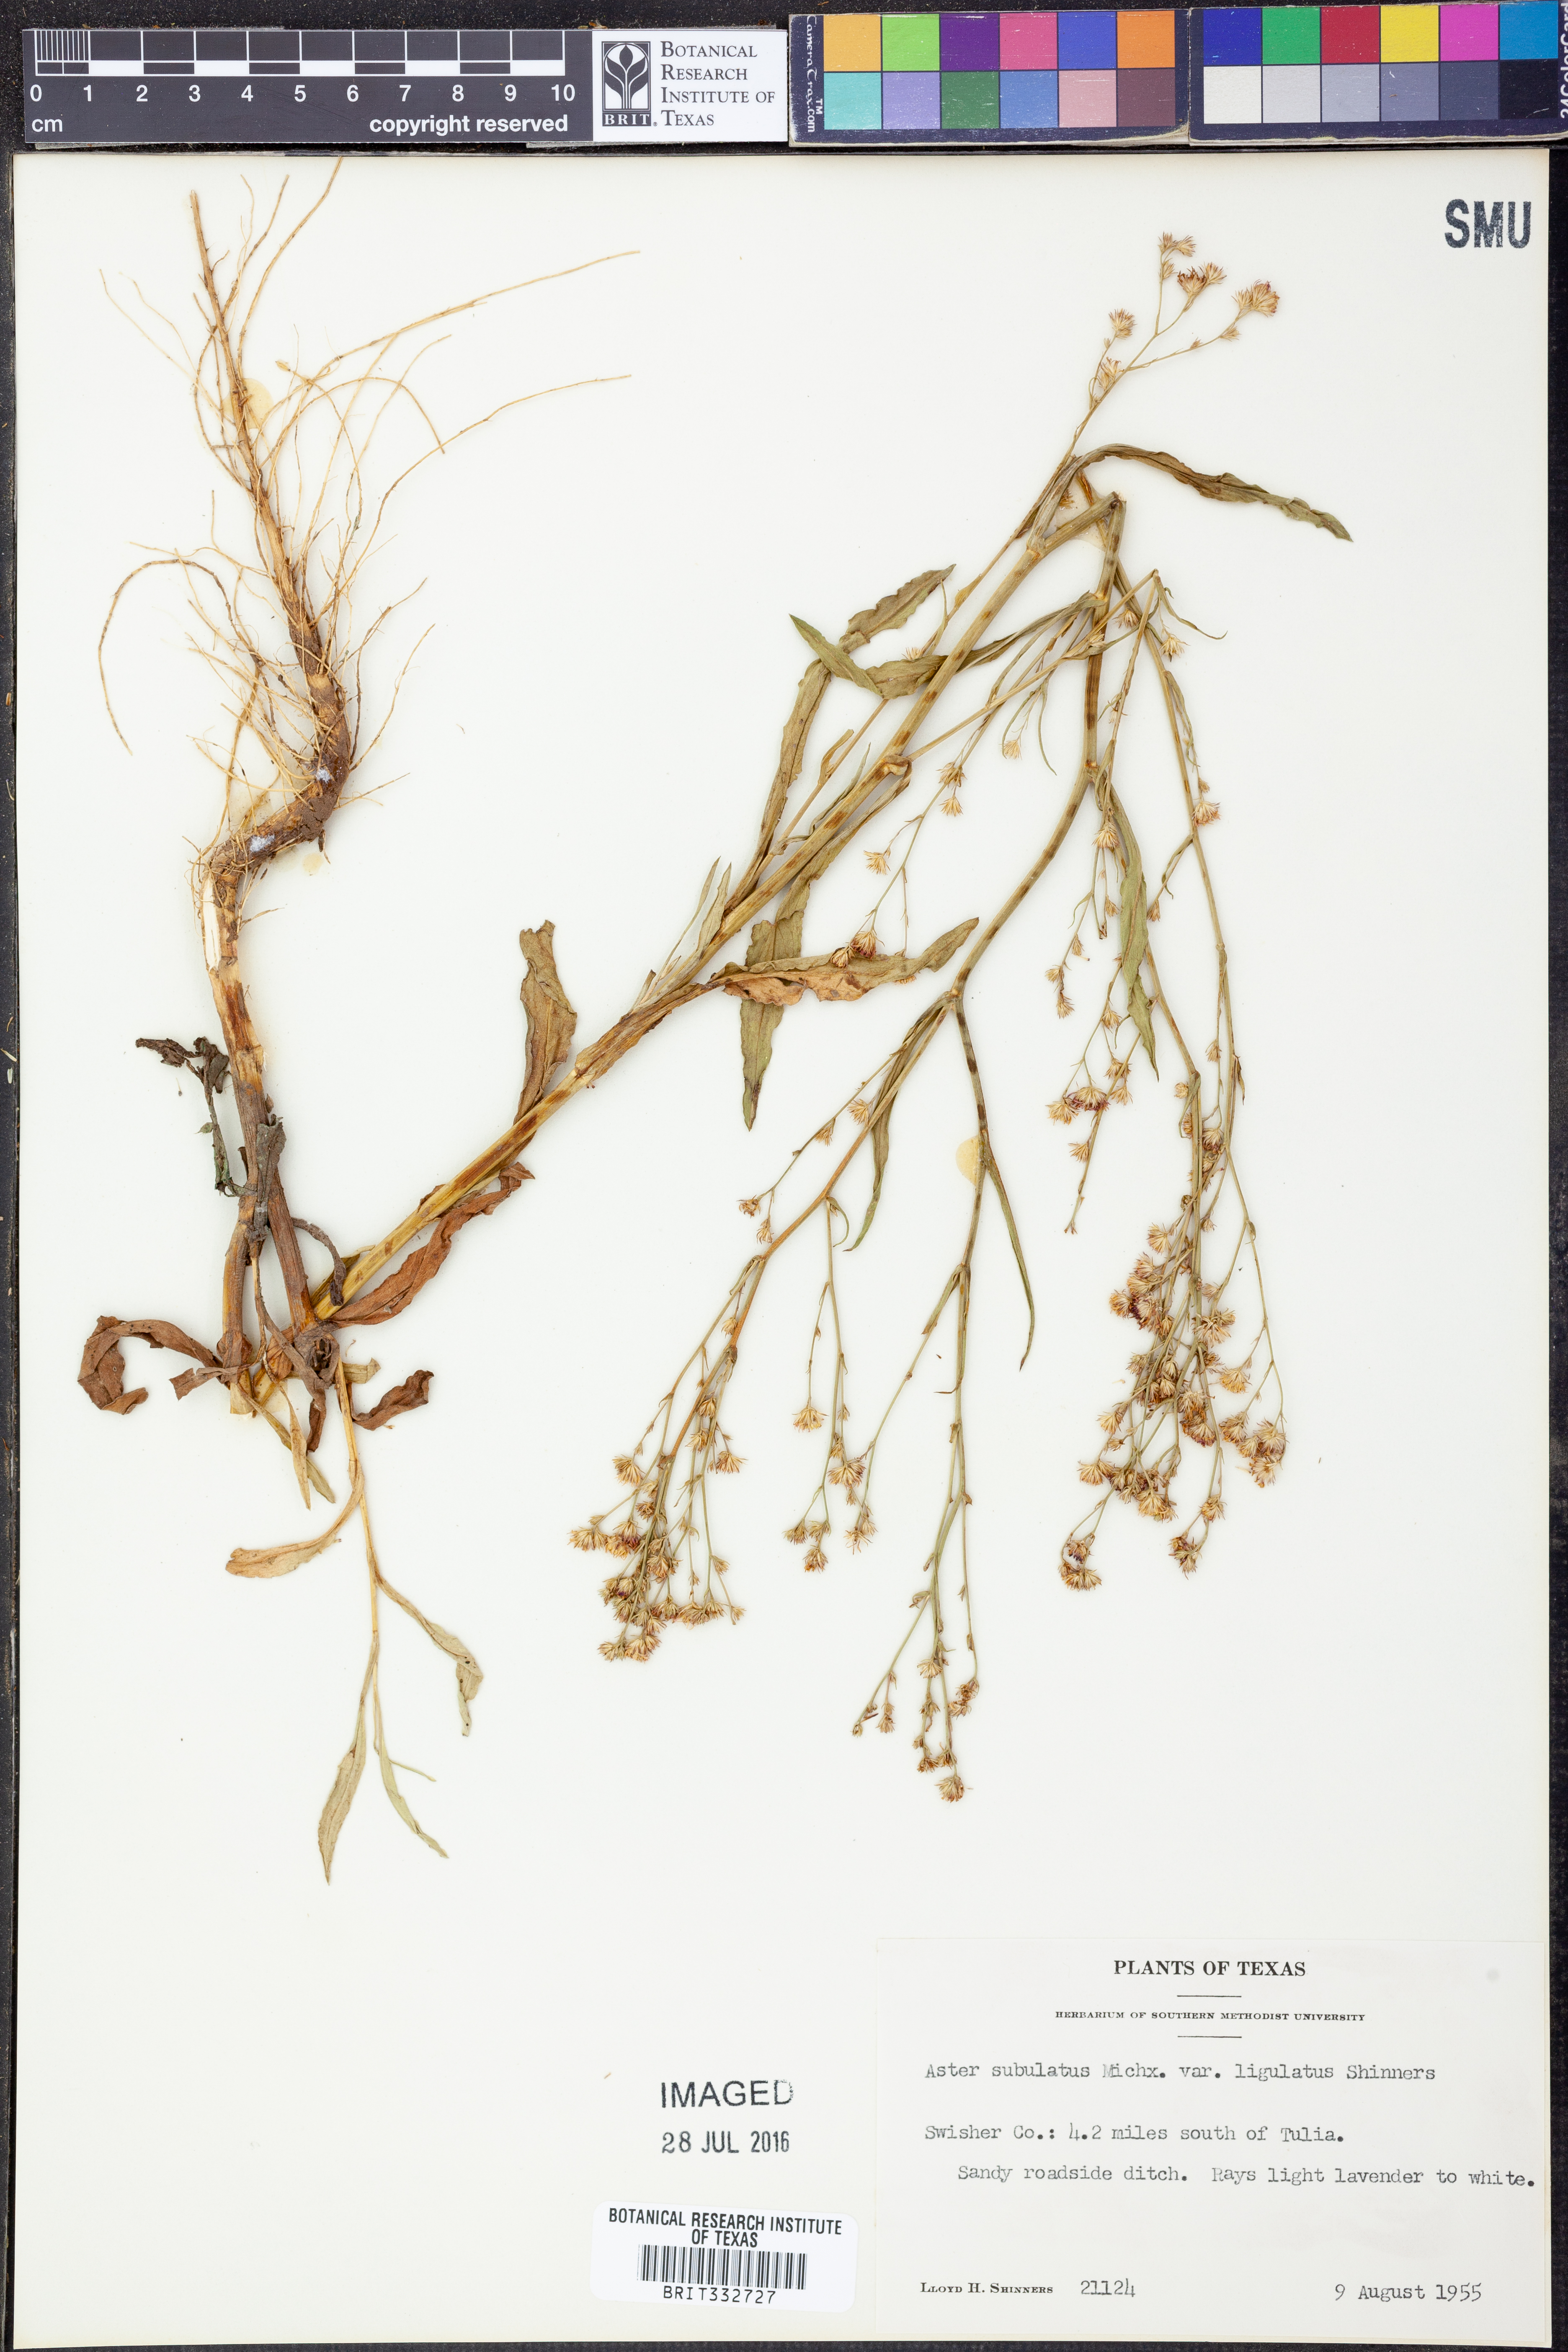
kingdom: Plantae
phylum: Tracheophyta
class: Magnoliopsida
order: Asterales
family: Asteraceae
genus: Symphyotrichum
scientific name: Symphyotrichum divaricatum
